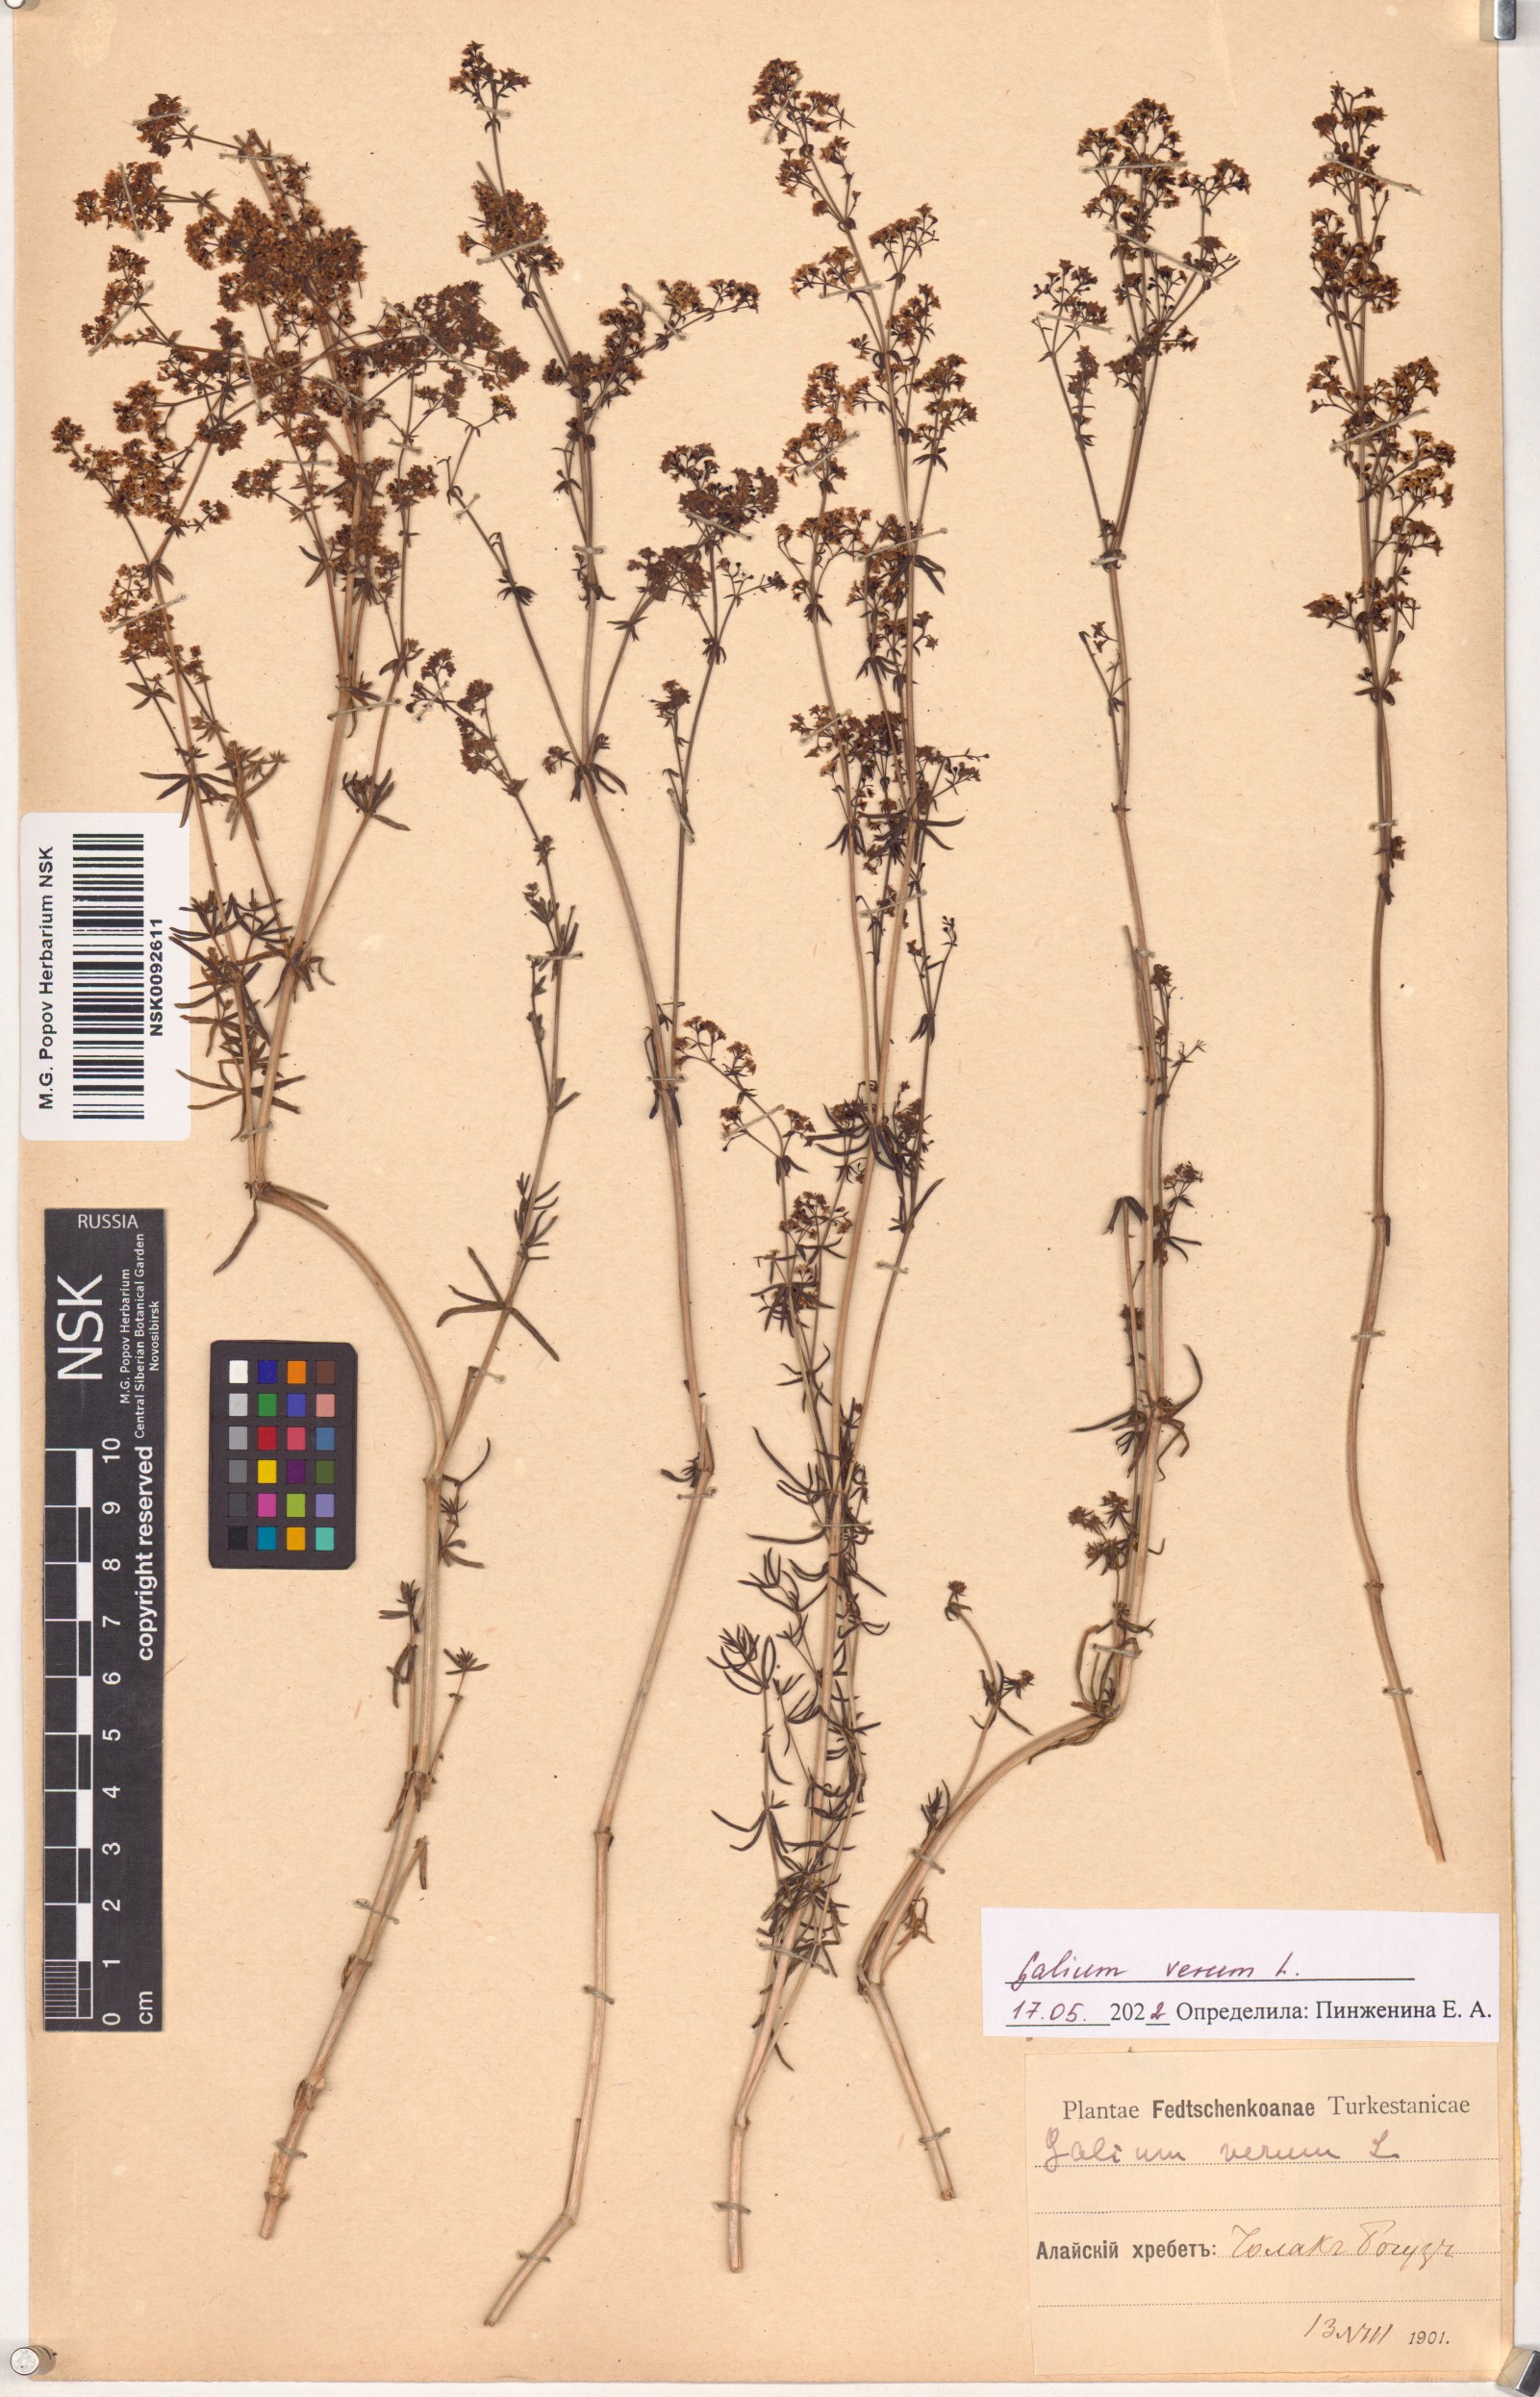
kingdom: Plantae
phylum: Tracheophyta
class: Magnoliopsida
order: Gentianales
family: Rubiaceae
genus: Galium
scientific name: Galium verum
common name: Lady's bedstraw
